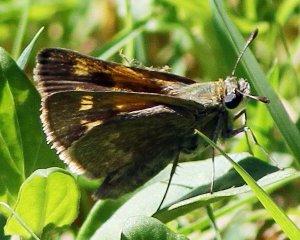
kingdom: Animalia
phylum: Arthropoda
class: Insecta
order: Lepidoptera
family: Hesperiidae
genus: Polites
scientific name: Polites themistocles
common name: Tawny-edged Skipper
